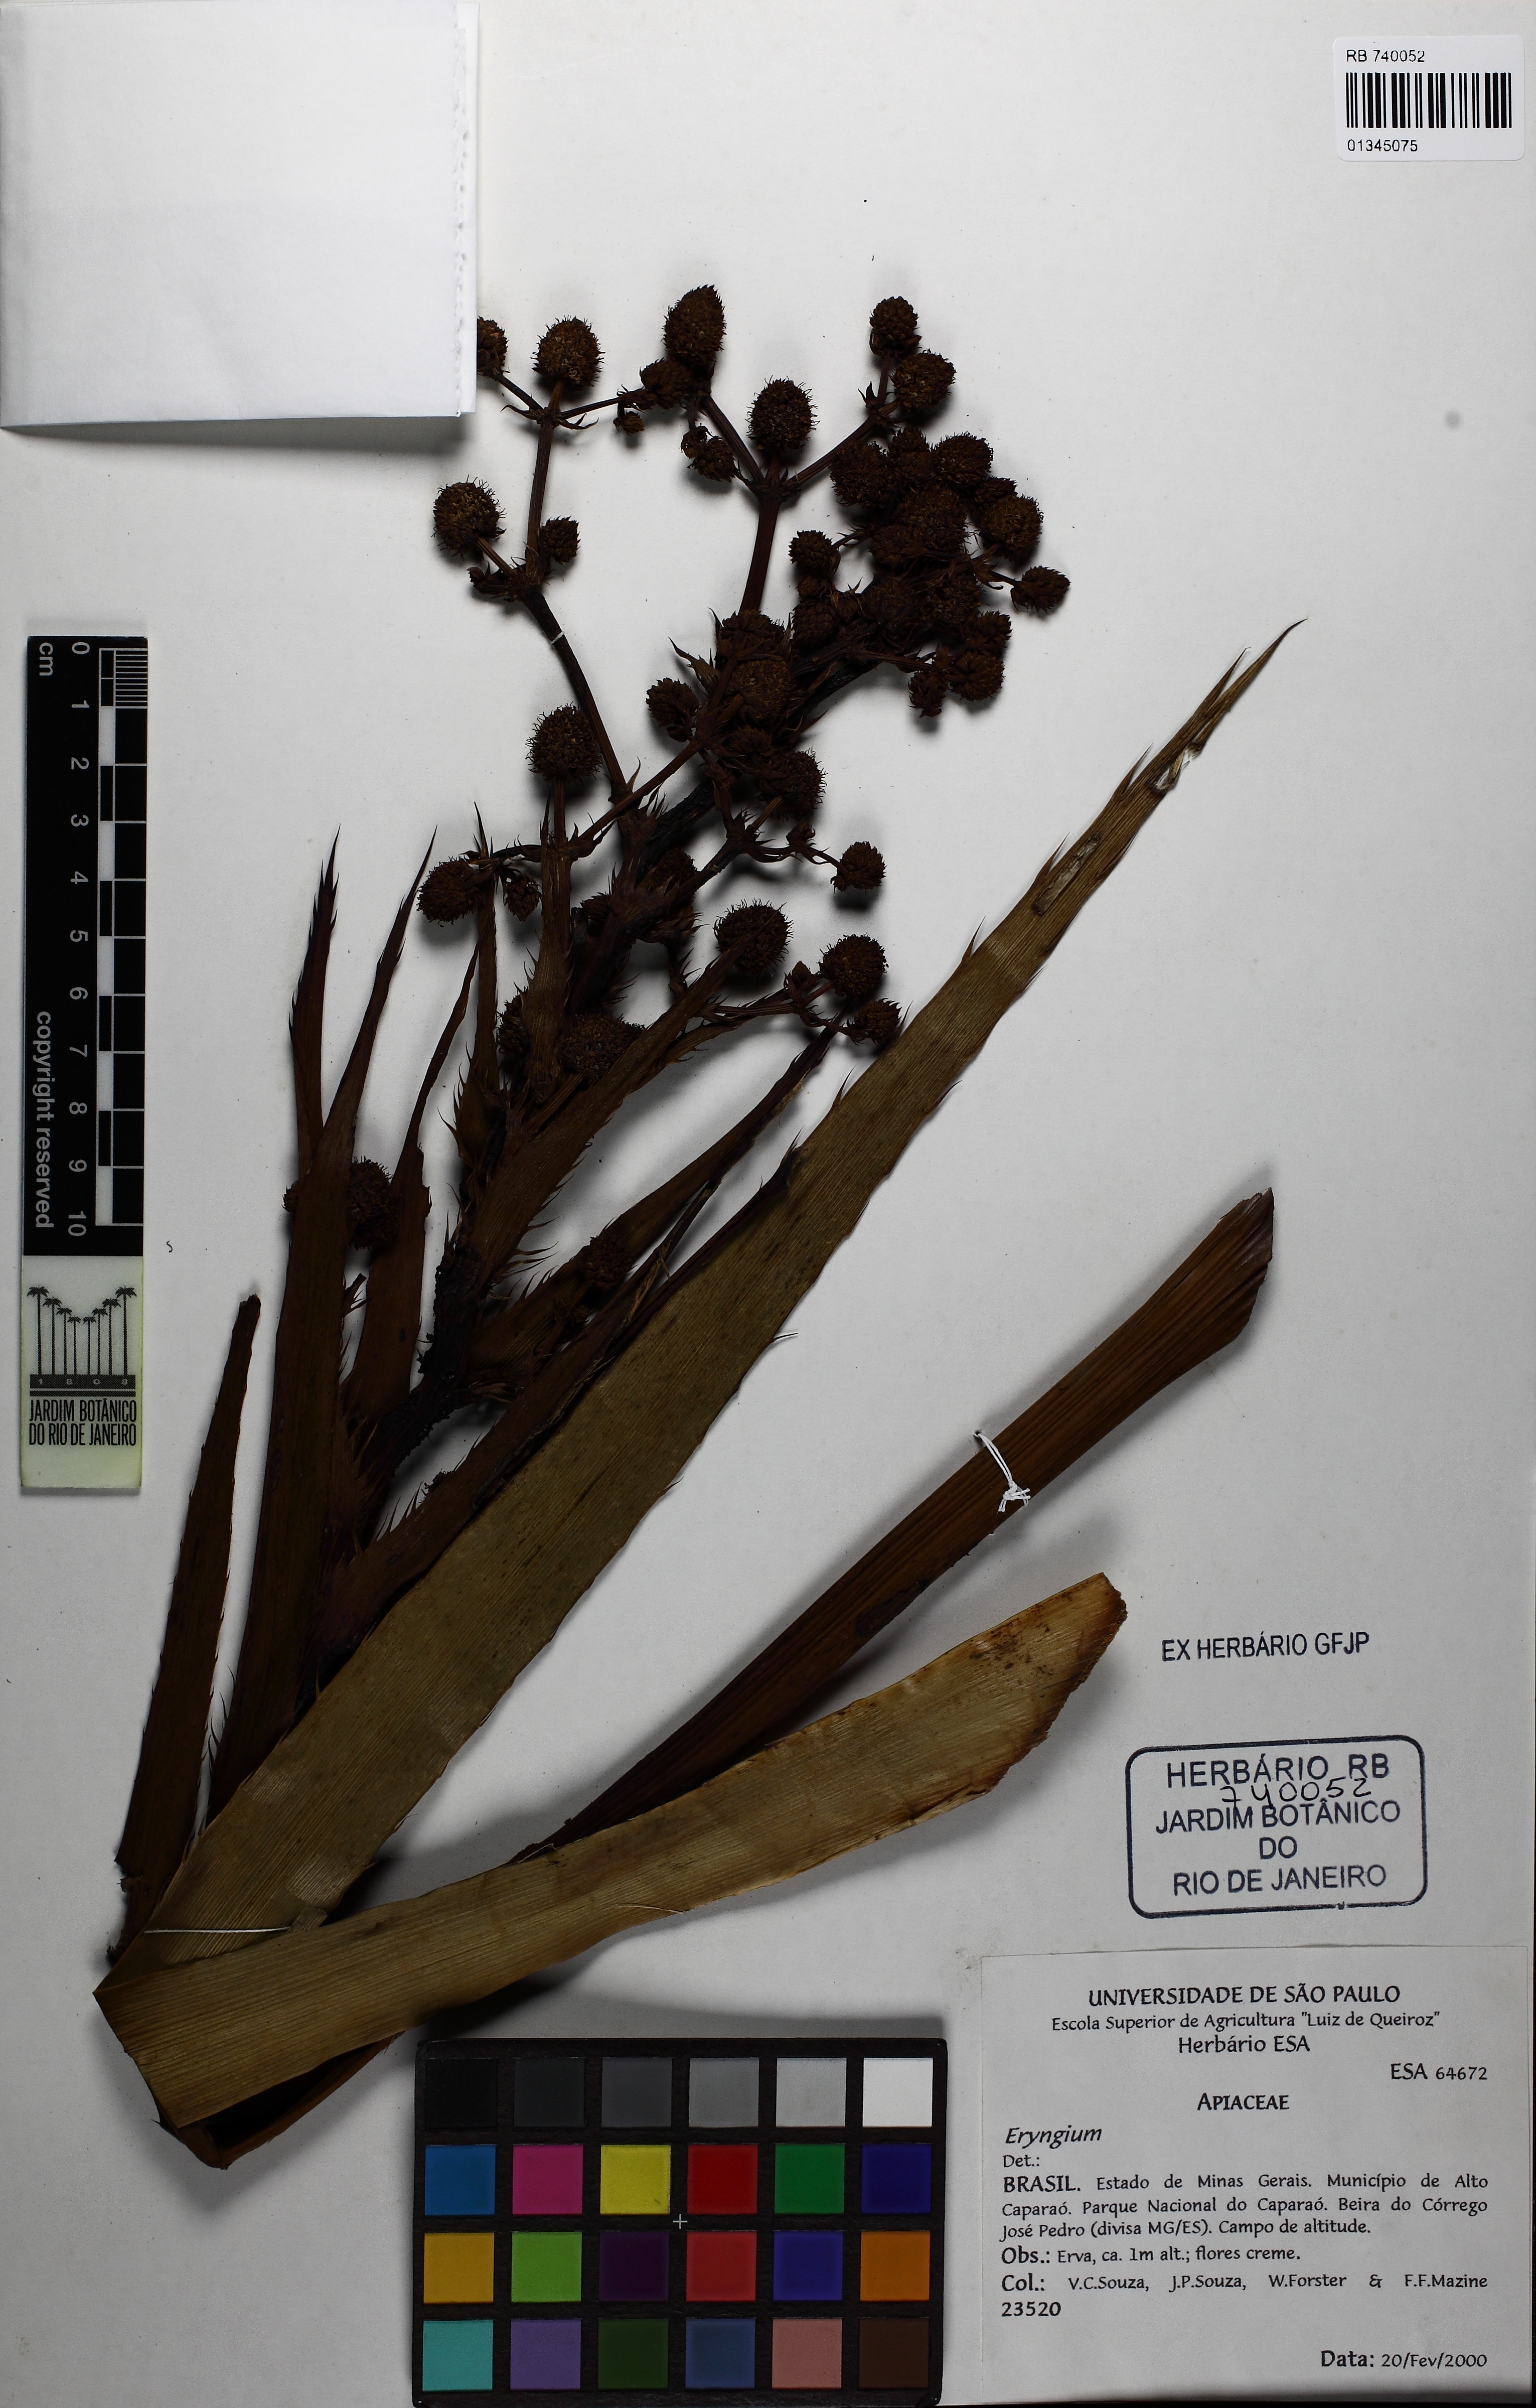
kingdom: Plantae
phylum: Tracheophyta
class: Magnoliopsida
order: Apiales
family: Apiaceae
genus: Eryngium
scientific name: Eryngium
